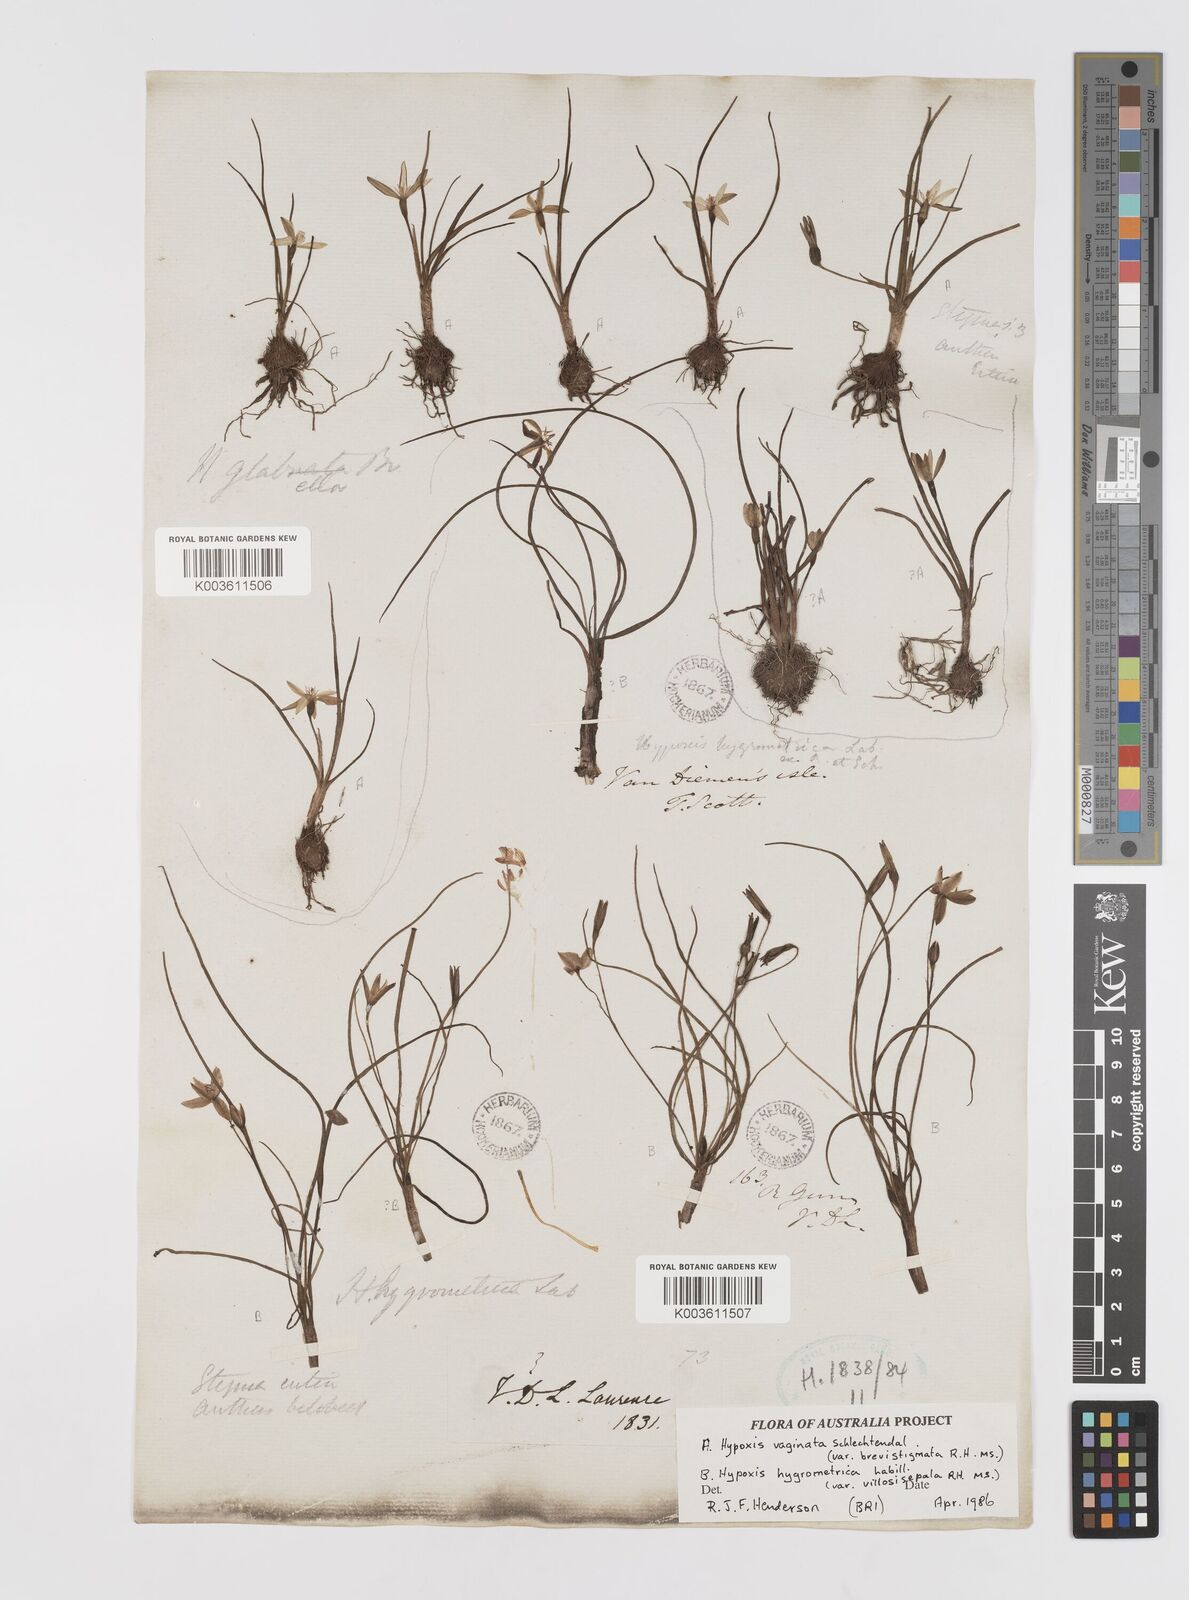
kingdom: Plantae
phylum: Tracheophyta
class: Liliopsida
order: Asparagales
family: Hypoxidaceae
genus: Hypoxis
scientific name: Hypoxis hygrometrica
